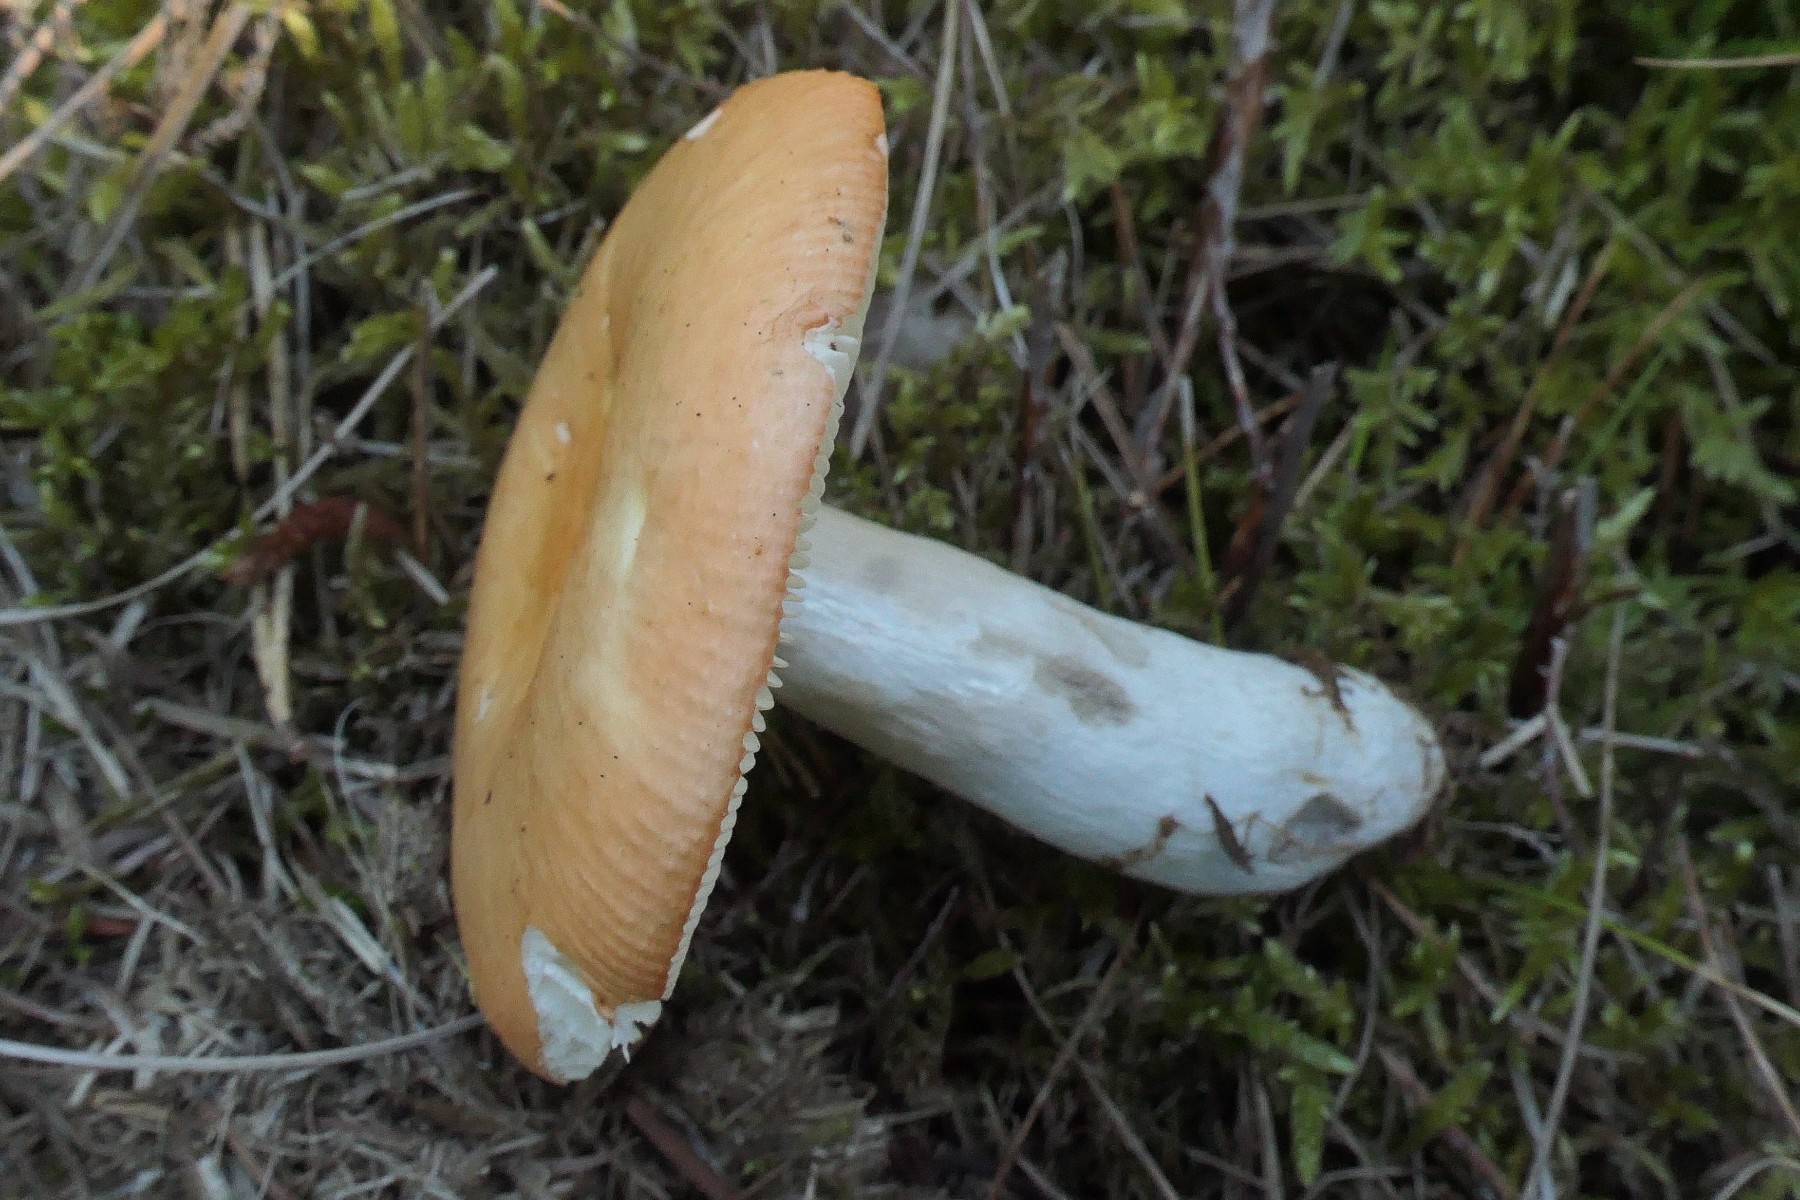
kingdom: Fungi
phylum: Basidiomycota
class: Agaricomycetes
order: Russulales
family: Russulaceae
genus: Russula
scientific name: Russula decolorans
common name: afblegende skørhat
